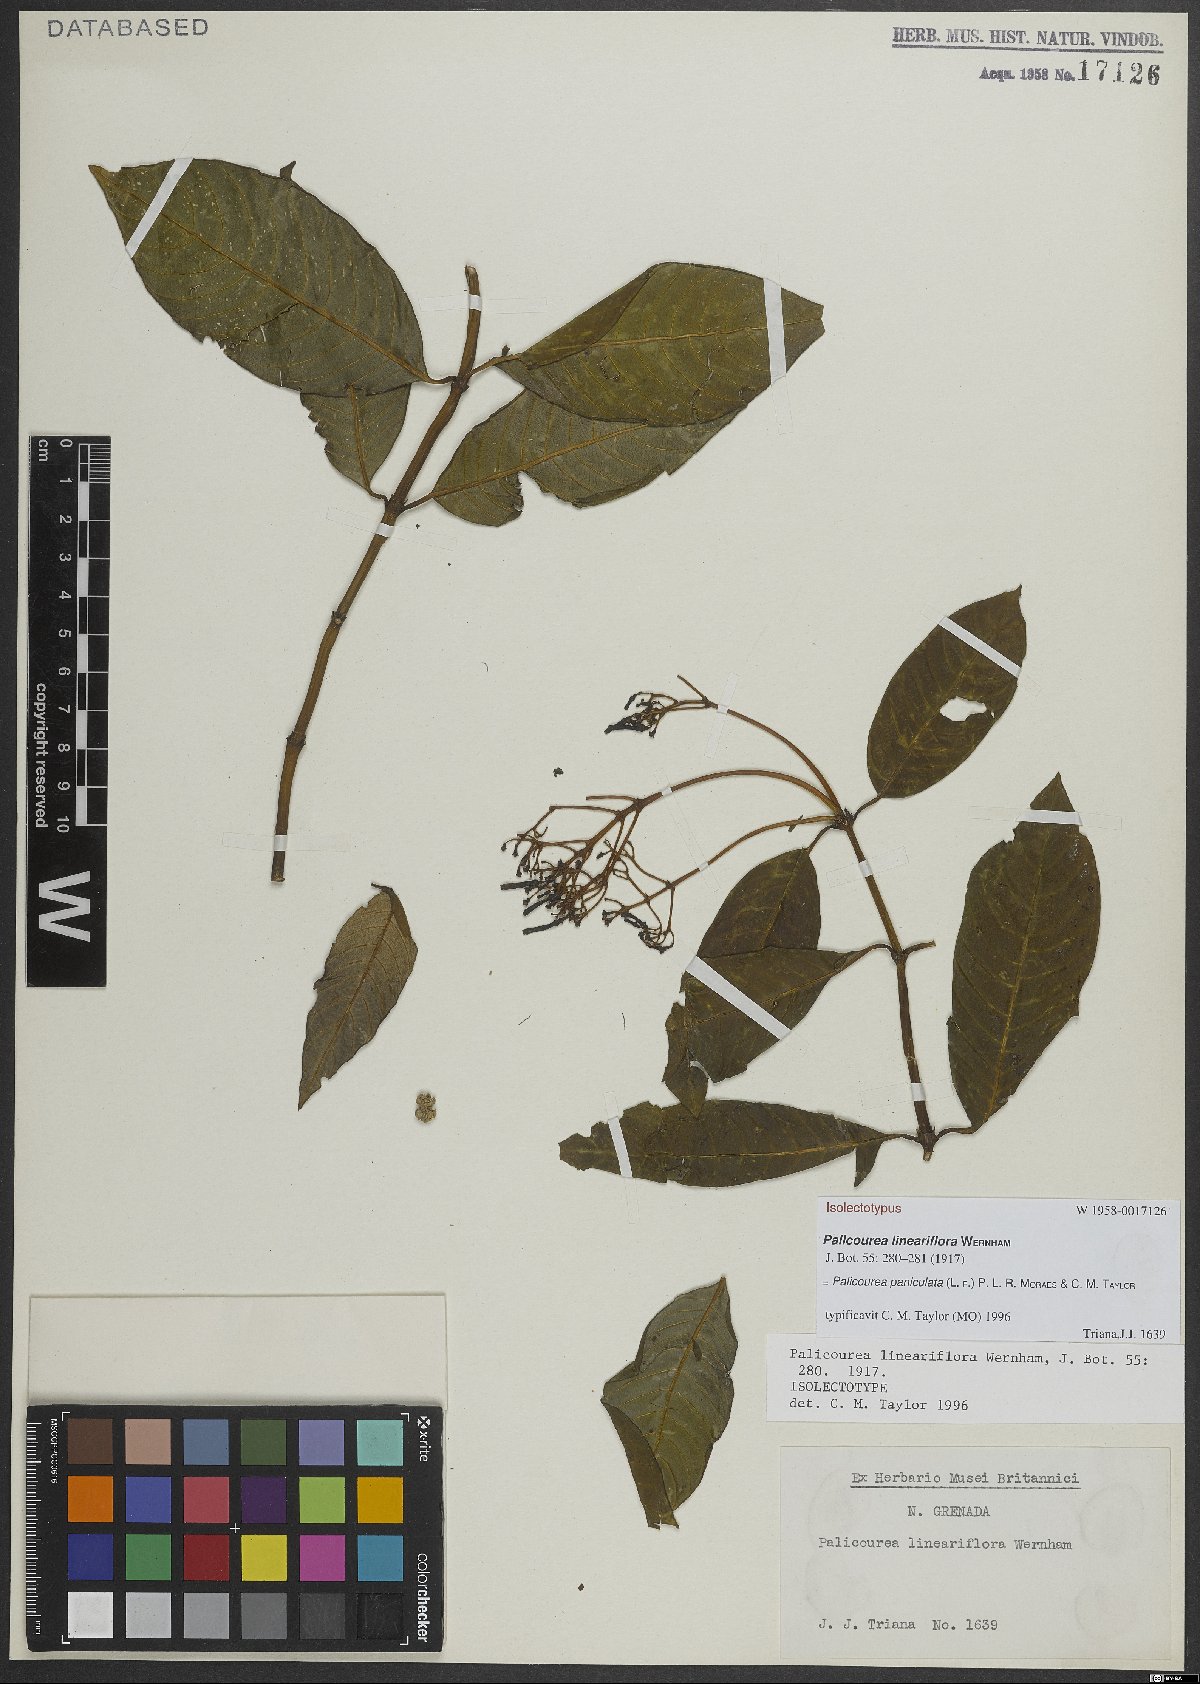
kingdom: Plantae
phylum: Tracheophyta
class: Magnoliopsida
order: Gentianales
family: Rubiaceae
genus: Palicourea
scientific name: Palicourea paniculata
